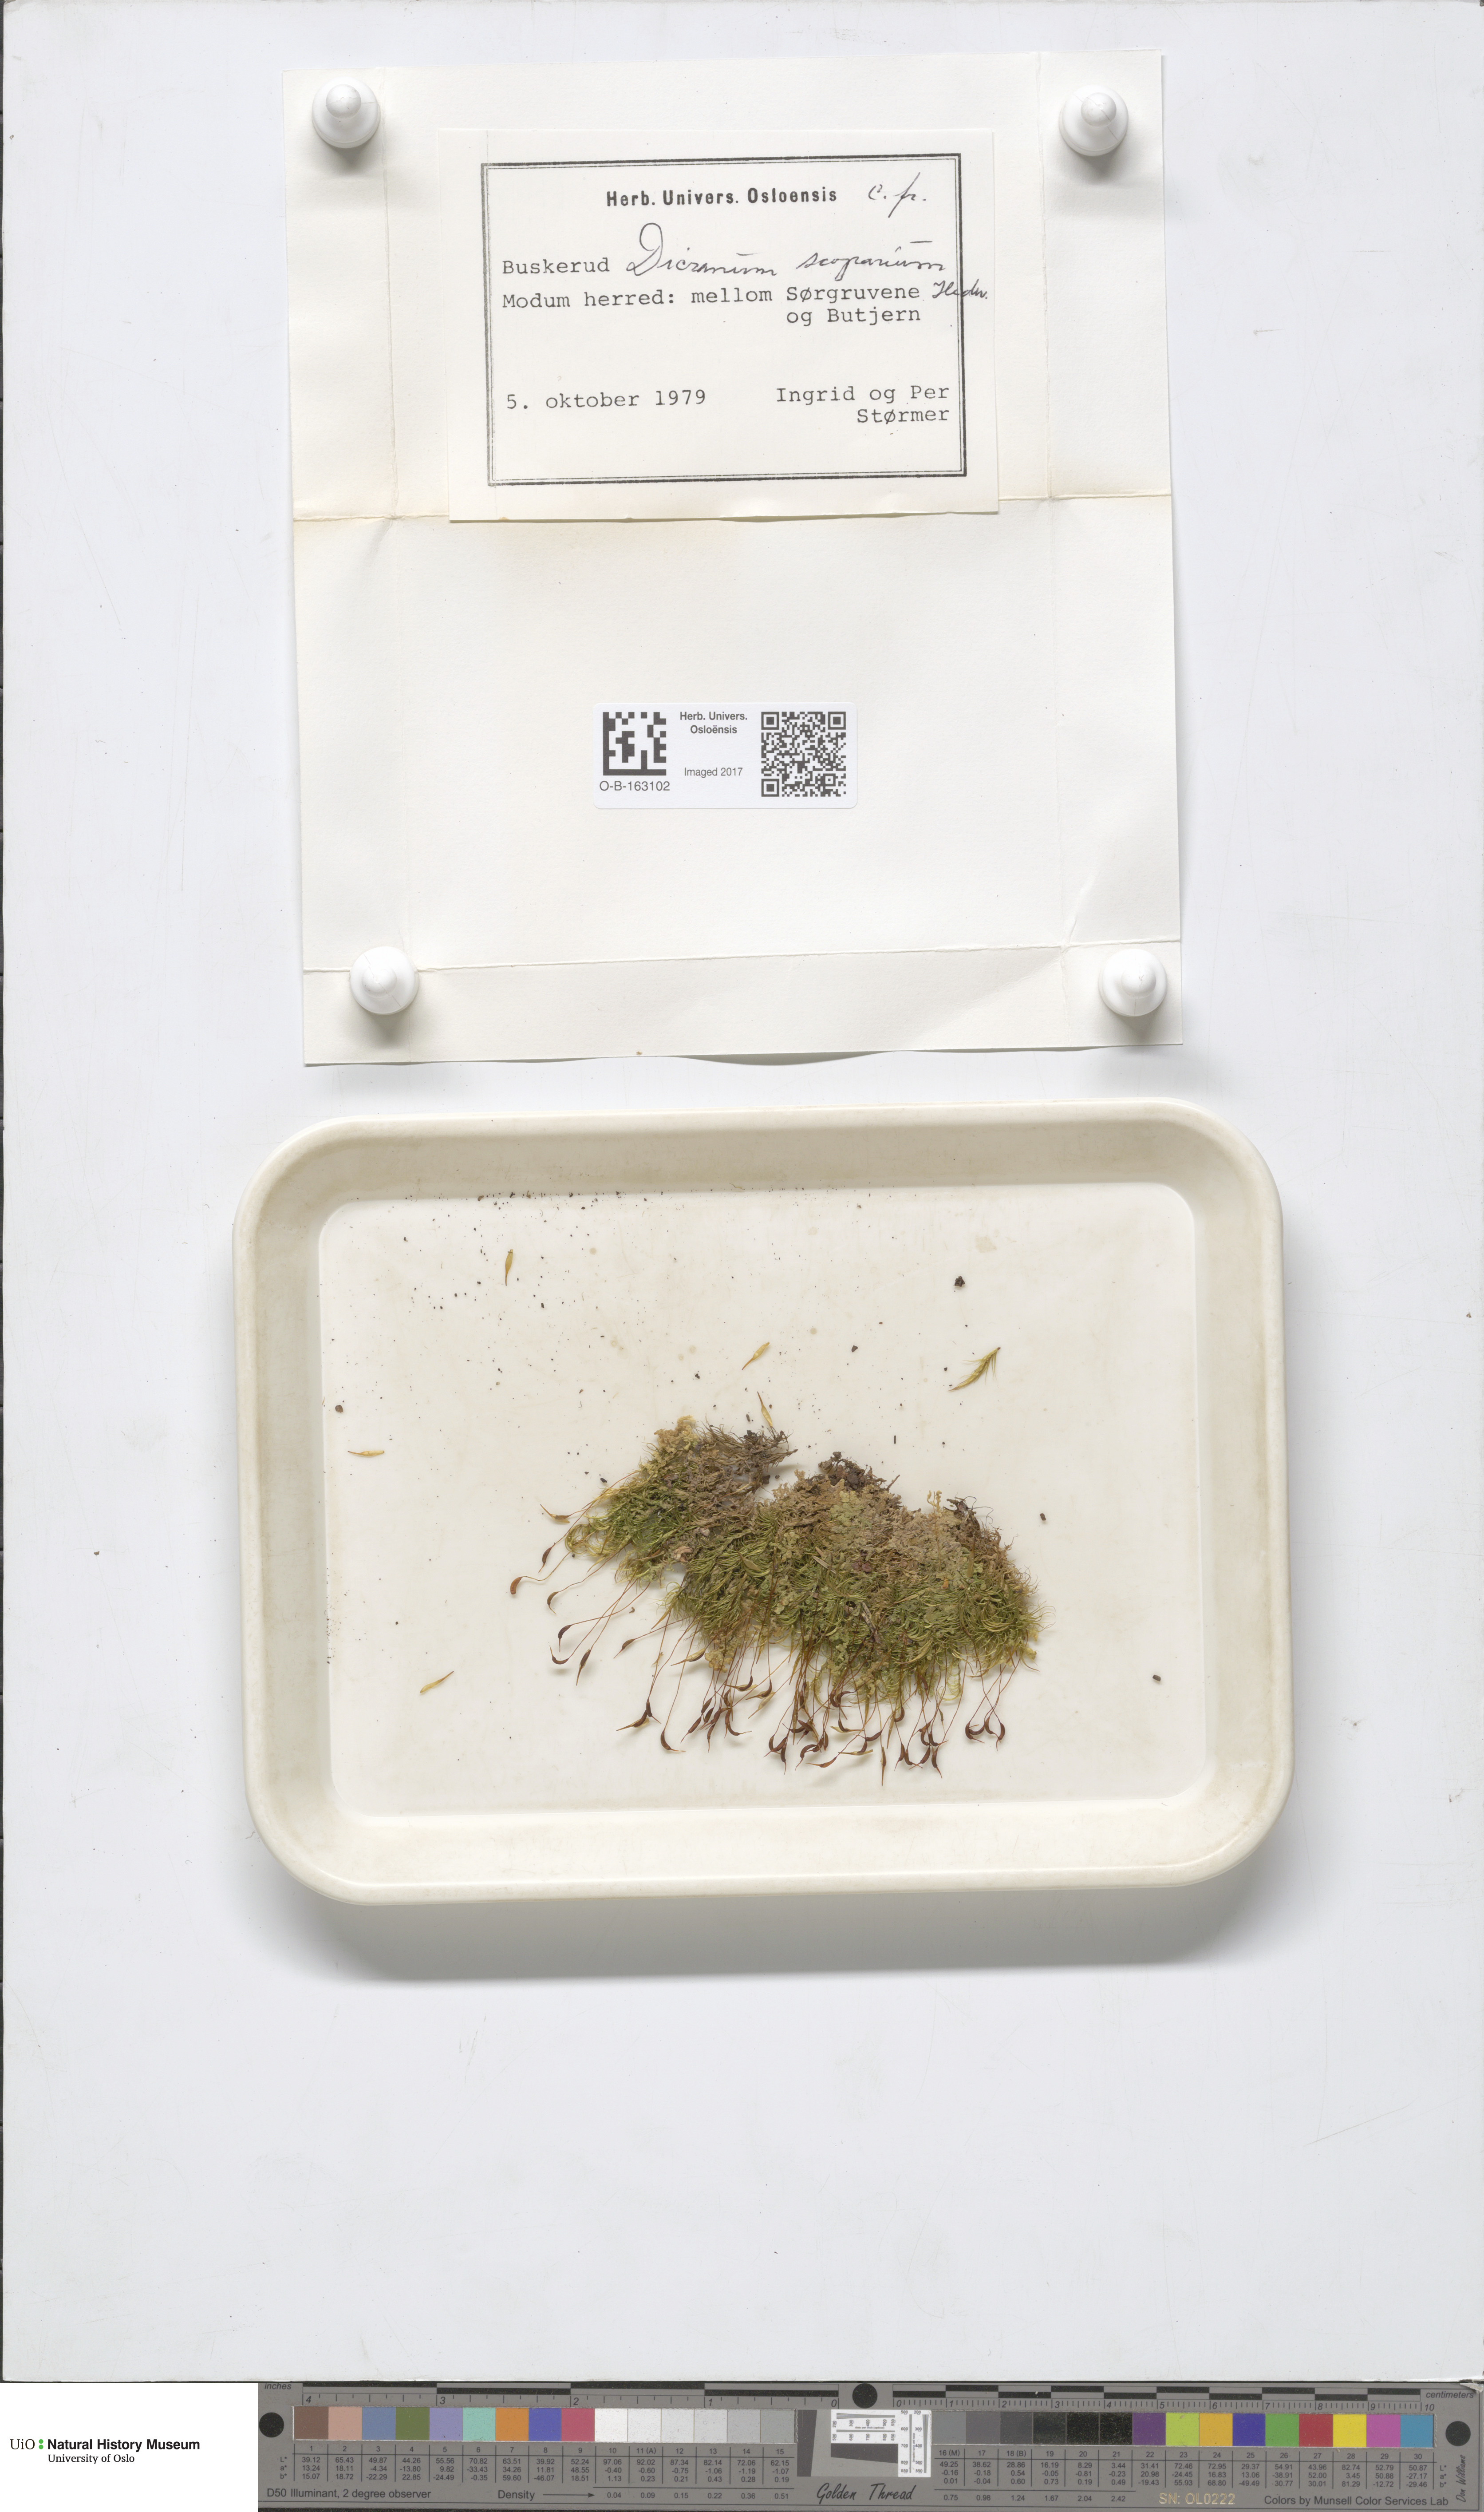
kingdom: Plantae
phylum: Bryophyta
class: Bryopsida
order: Dicranales
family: Dicranaceae
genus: Dicranum
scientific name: Dicranum scoparium
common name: Broom fork-moss
